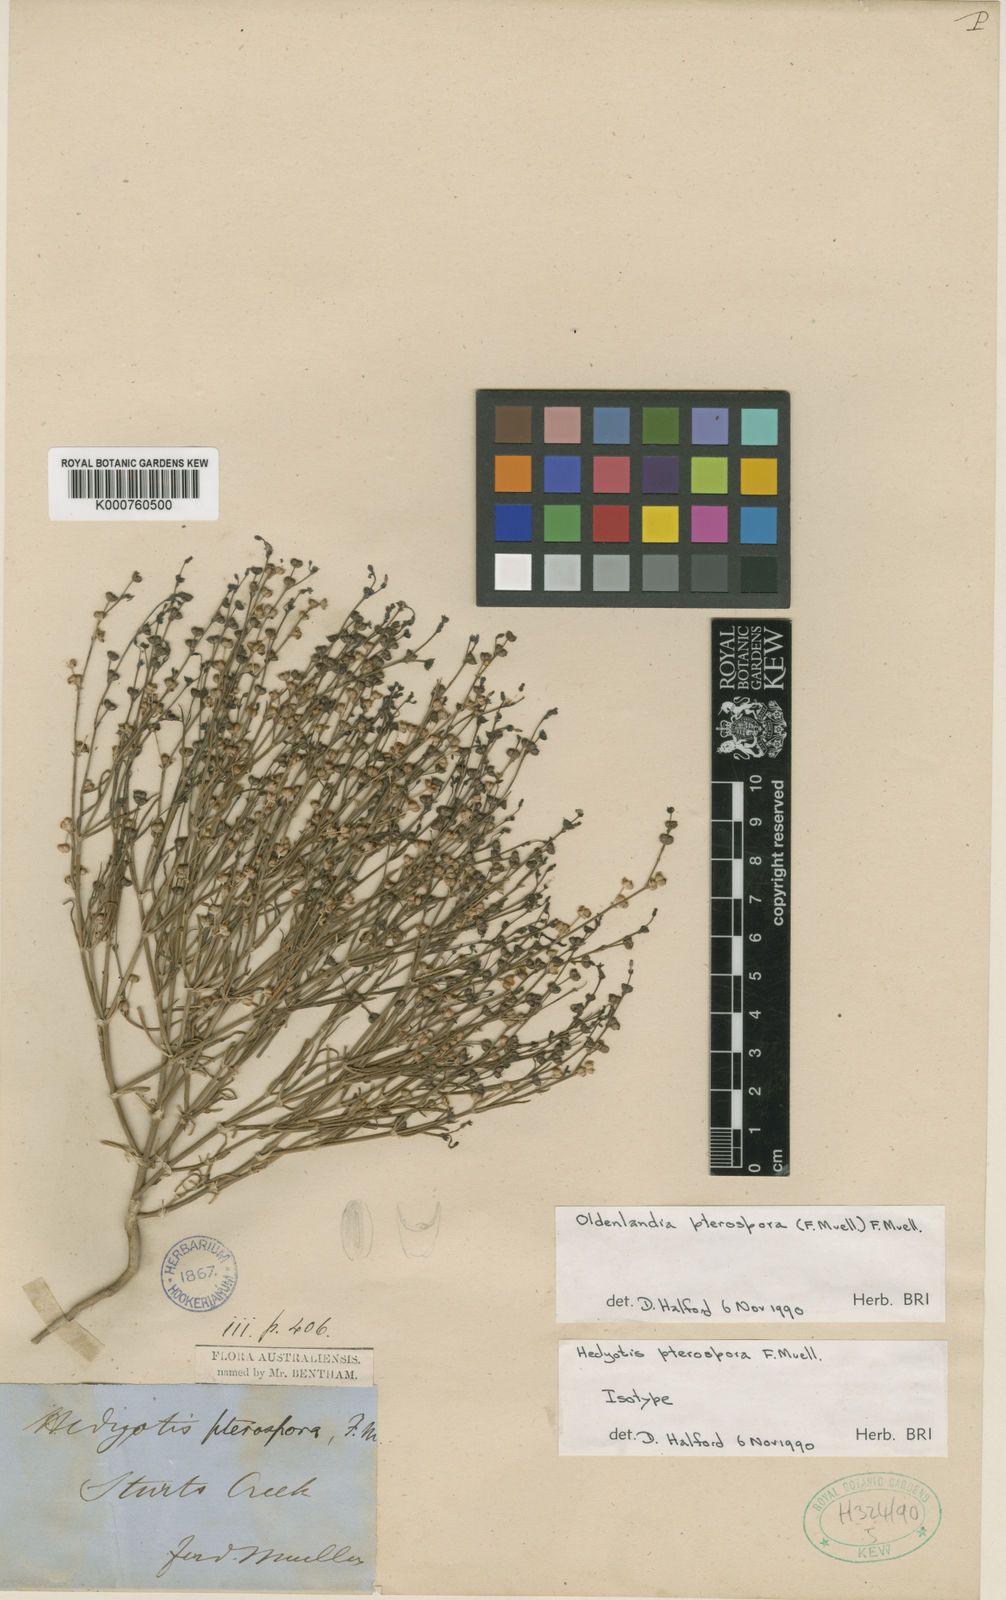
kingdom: Plantae
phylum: Tracheophyta
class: Magnoliopsida
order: Gentianales
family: Rubiaceae
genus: Paranotis
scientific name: Paranotis pterospora
